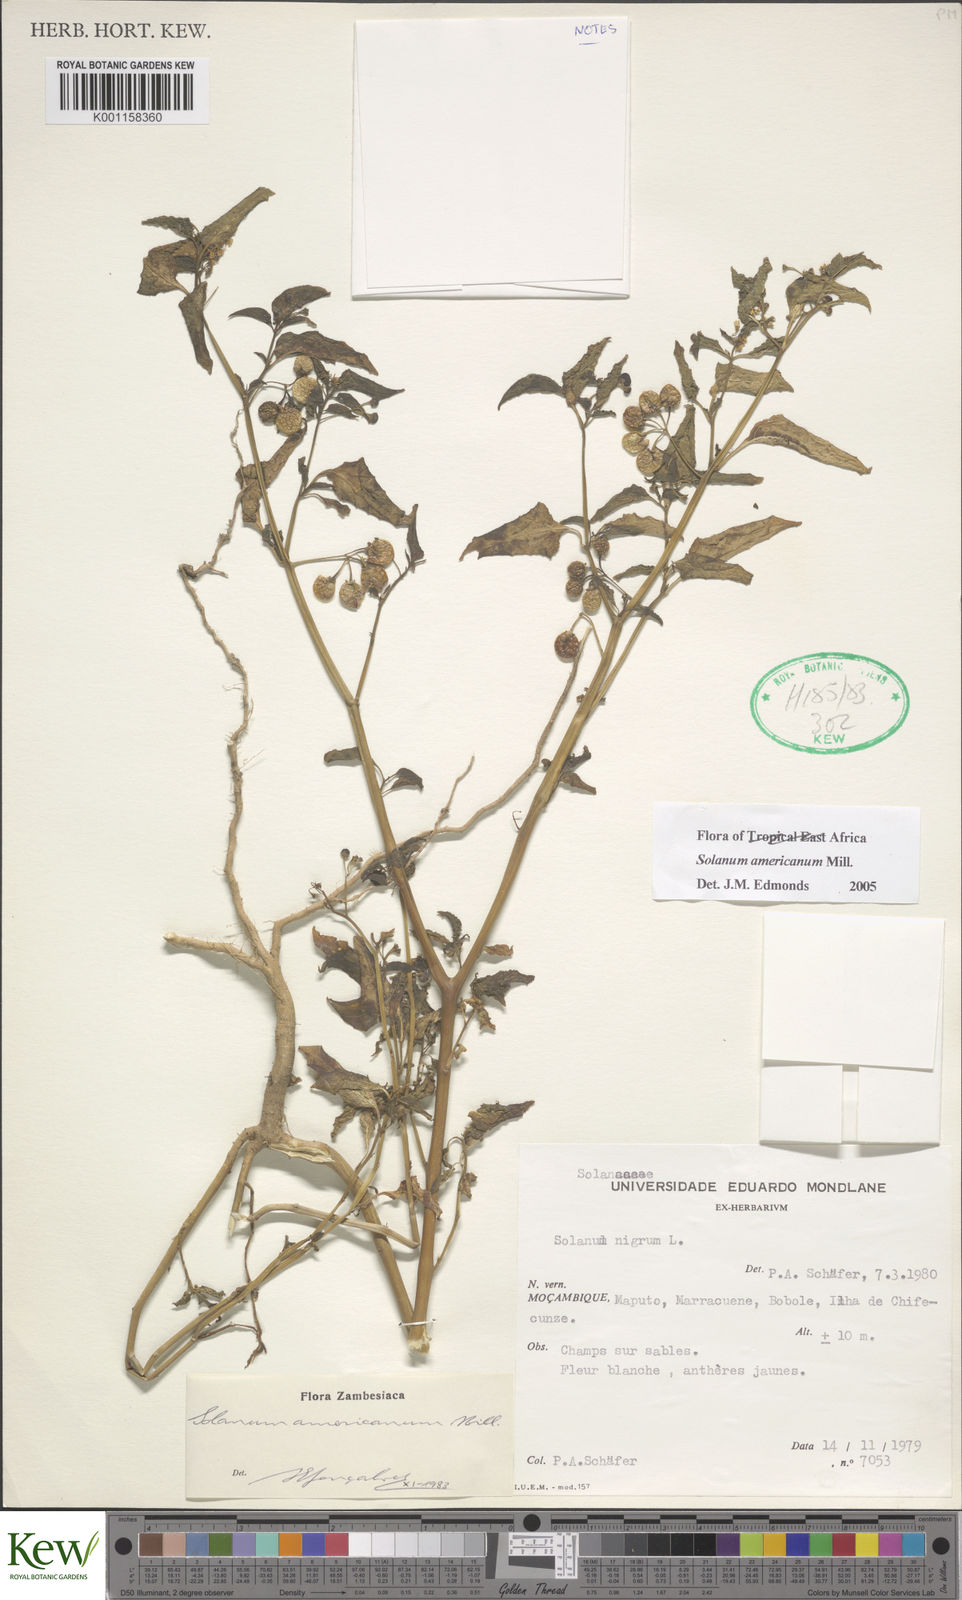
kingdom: Plantae
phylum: Tracheophyta
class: Magnoliopsida
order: Solanales
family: Solanaceae
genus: Solanum
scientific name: Solanum americanum
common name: American black nightshade
